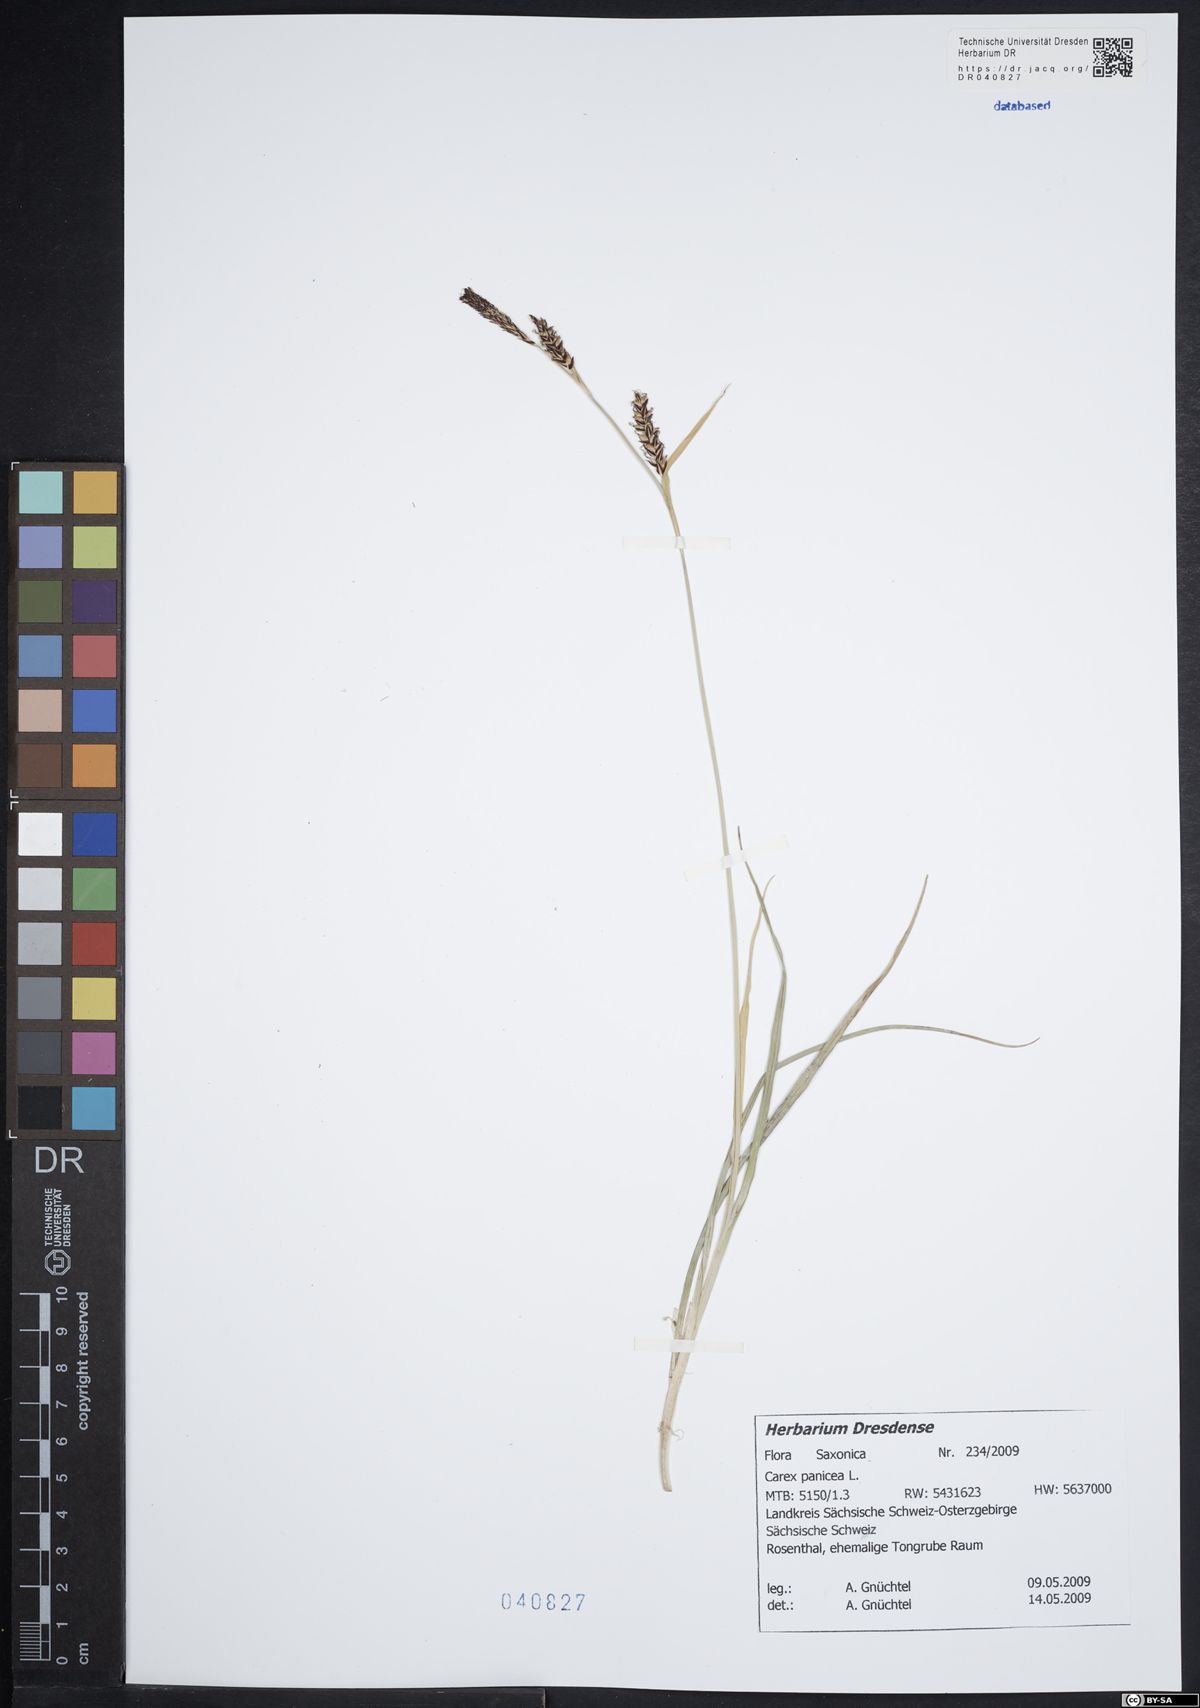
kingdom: Plantae
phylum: Tracheophyta
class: Liliopsida
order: Poales
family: Cyperaceae
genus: Carex
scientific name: Carex panicea
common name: Carnation sedge
